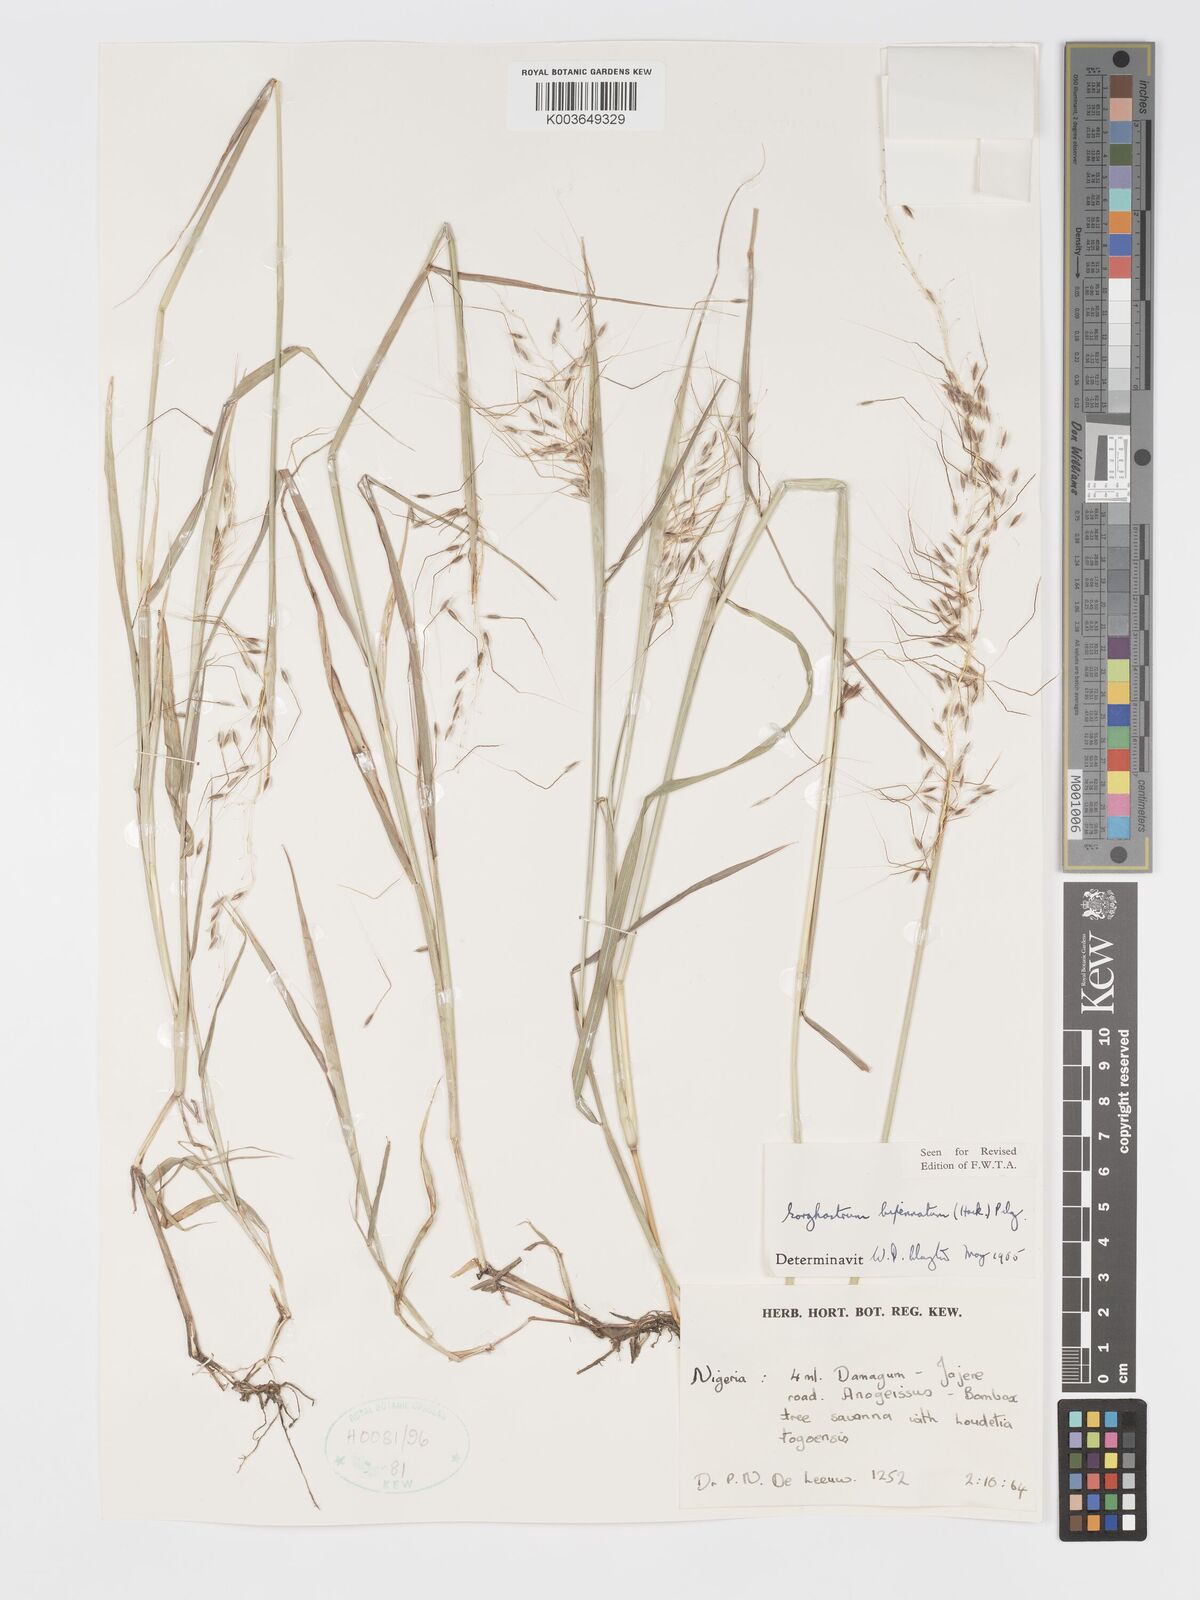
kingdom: Plantae
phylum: Tracheophyta
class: Liliopsida
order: Poales
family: Poaceae
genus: Sorghastrum
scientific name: Sorghastrum incompletum
